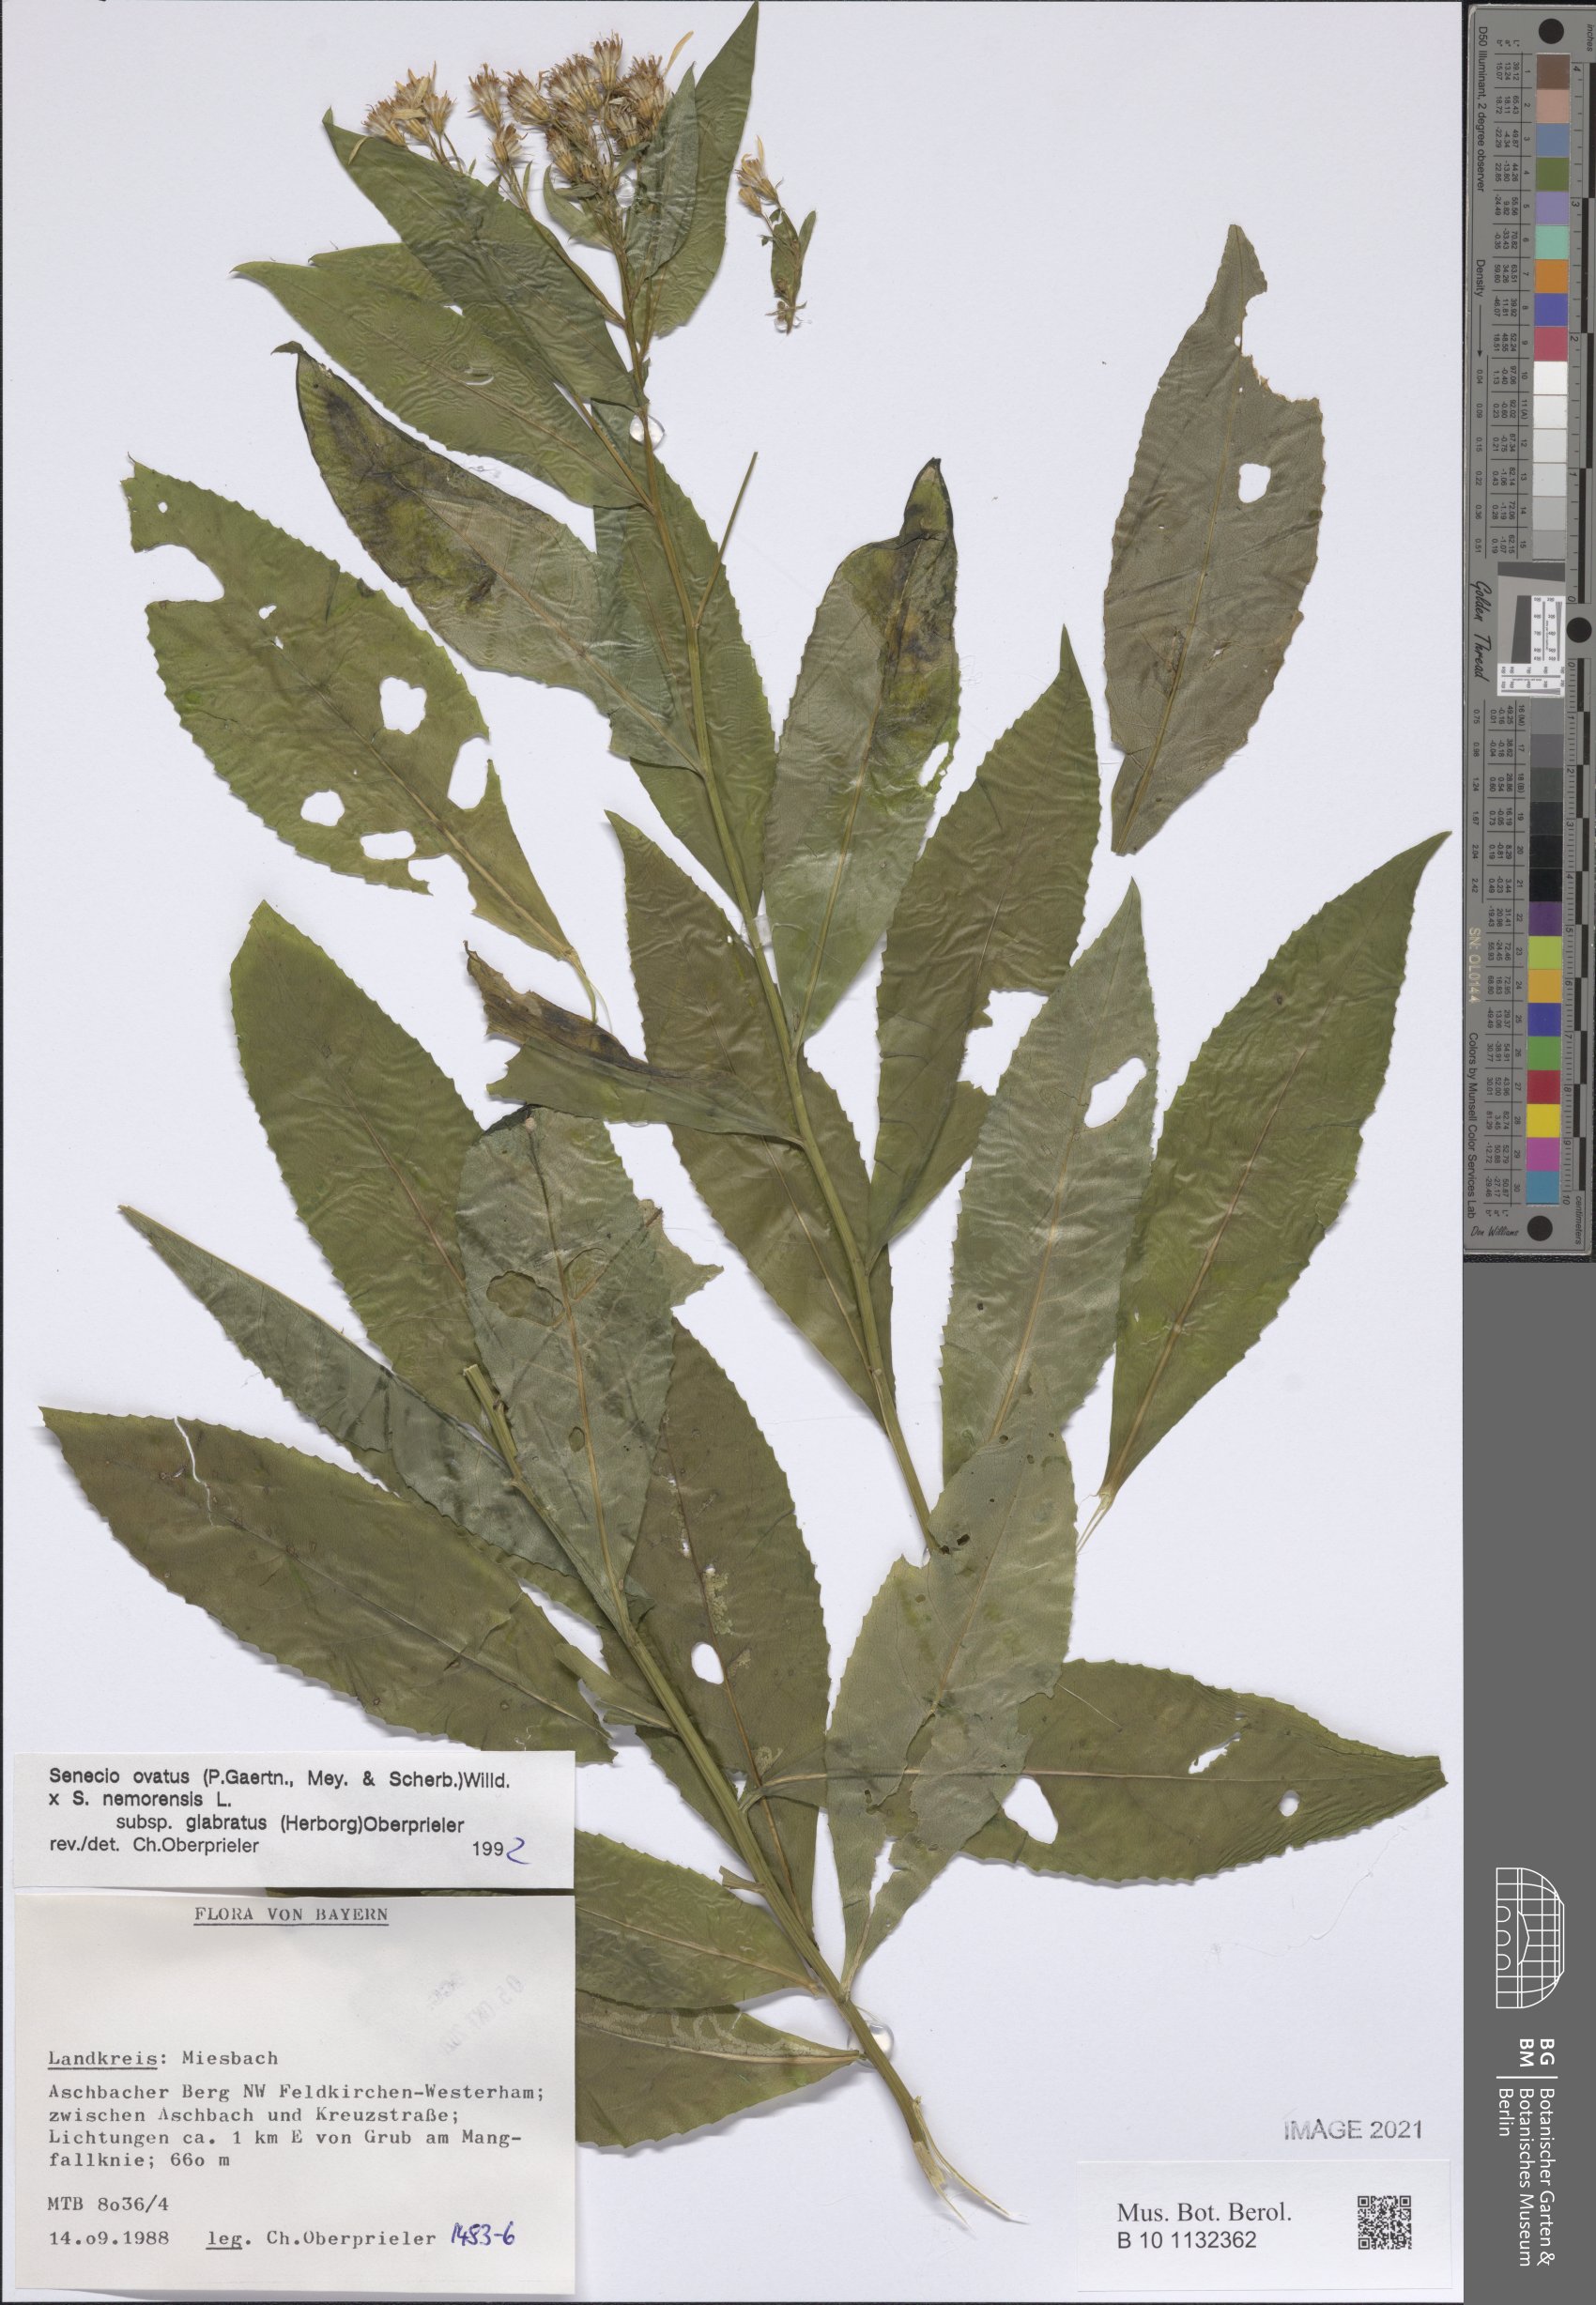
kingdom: Plantae
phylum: Tracheophyta
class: Magnoliopsida
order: Asterales
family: Asteraceae
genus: Senecio
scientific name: Senecio ovatus
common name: Wood ragwort
